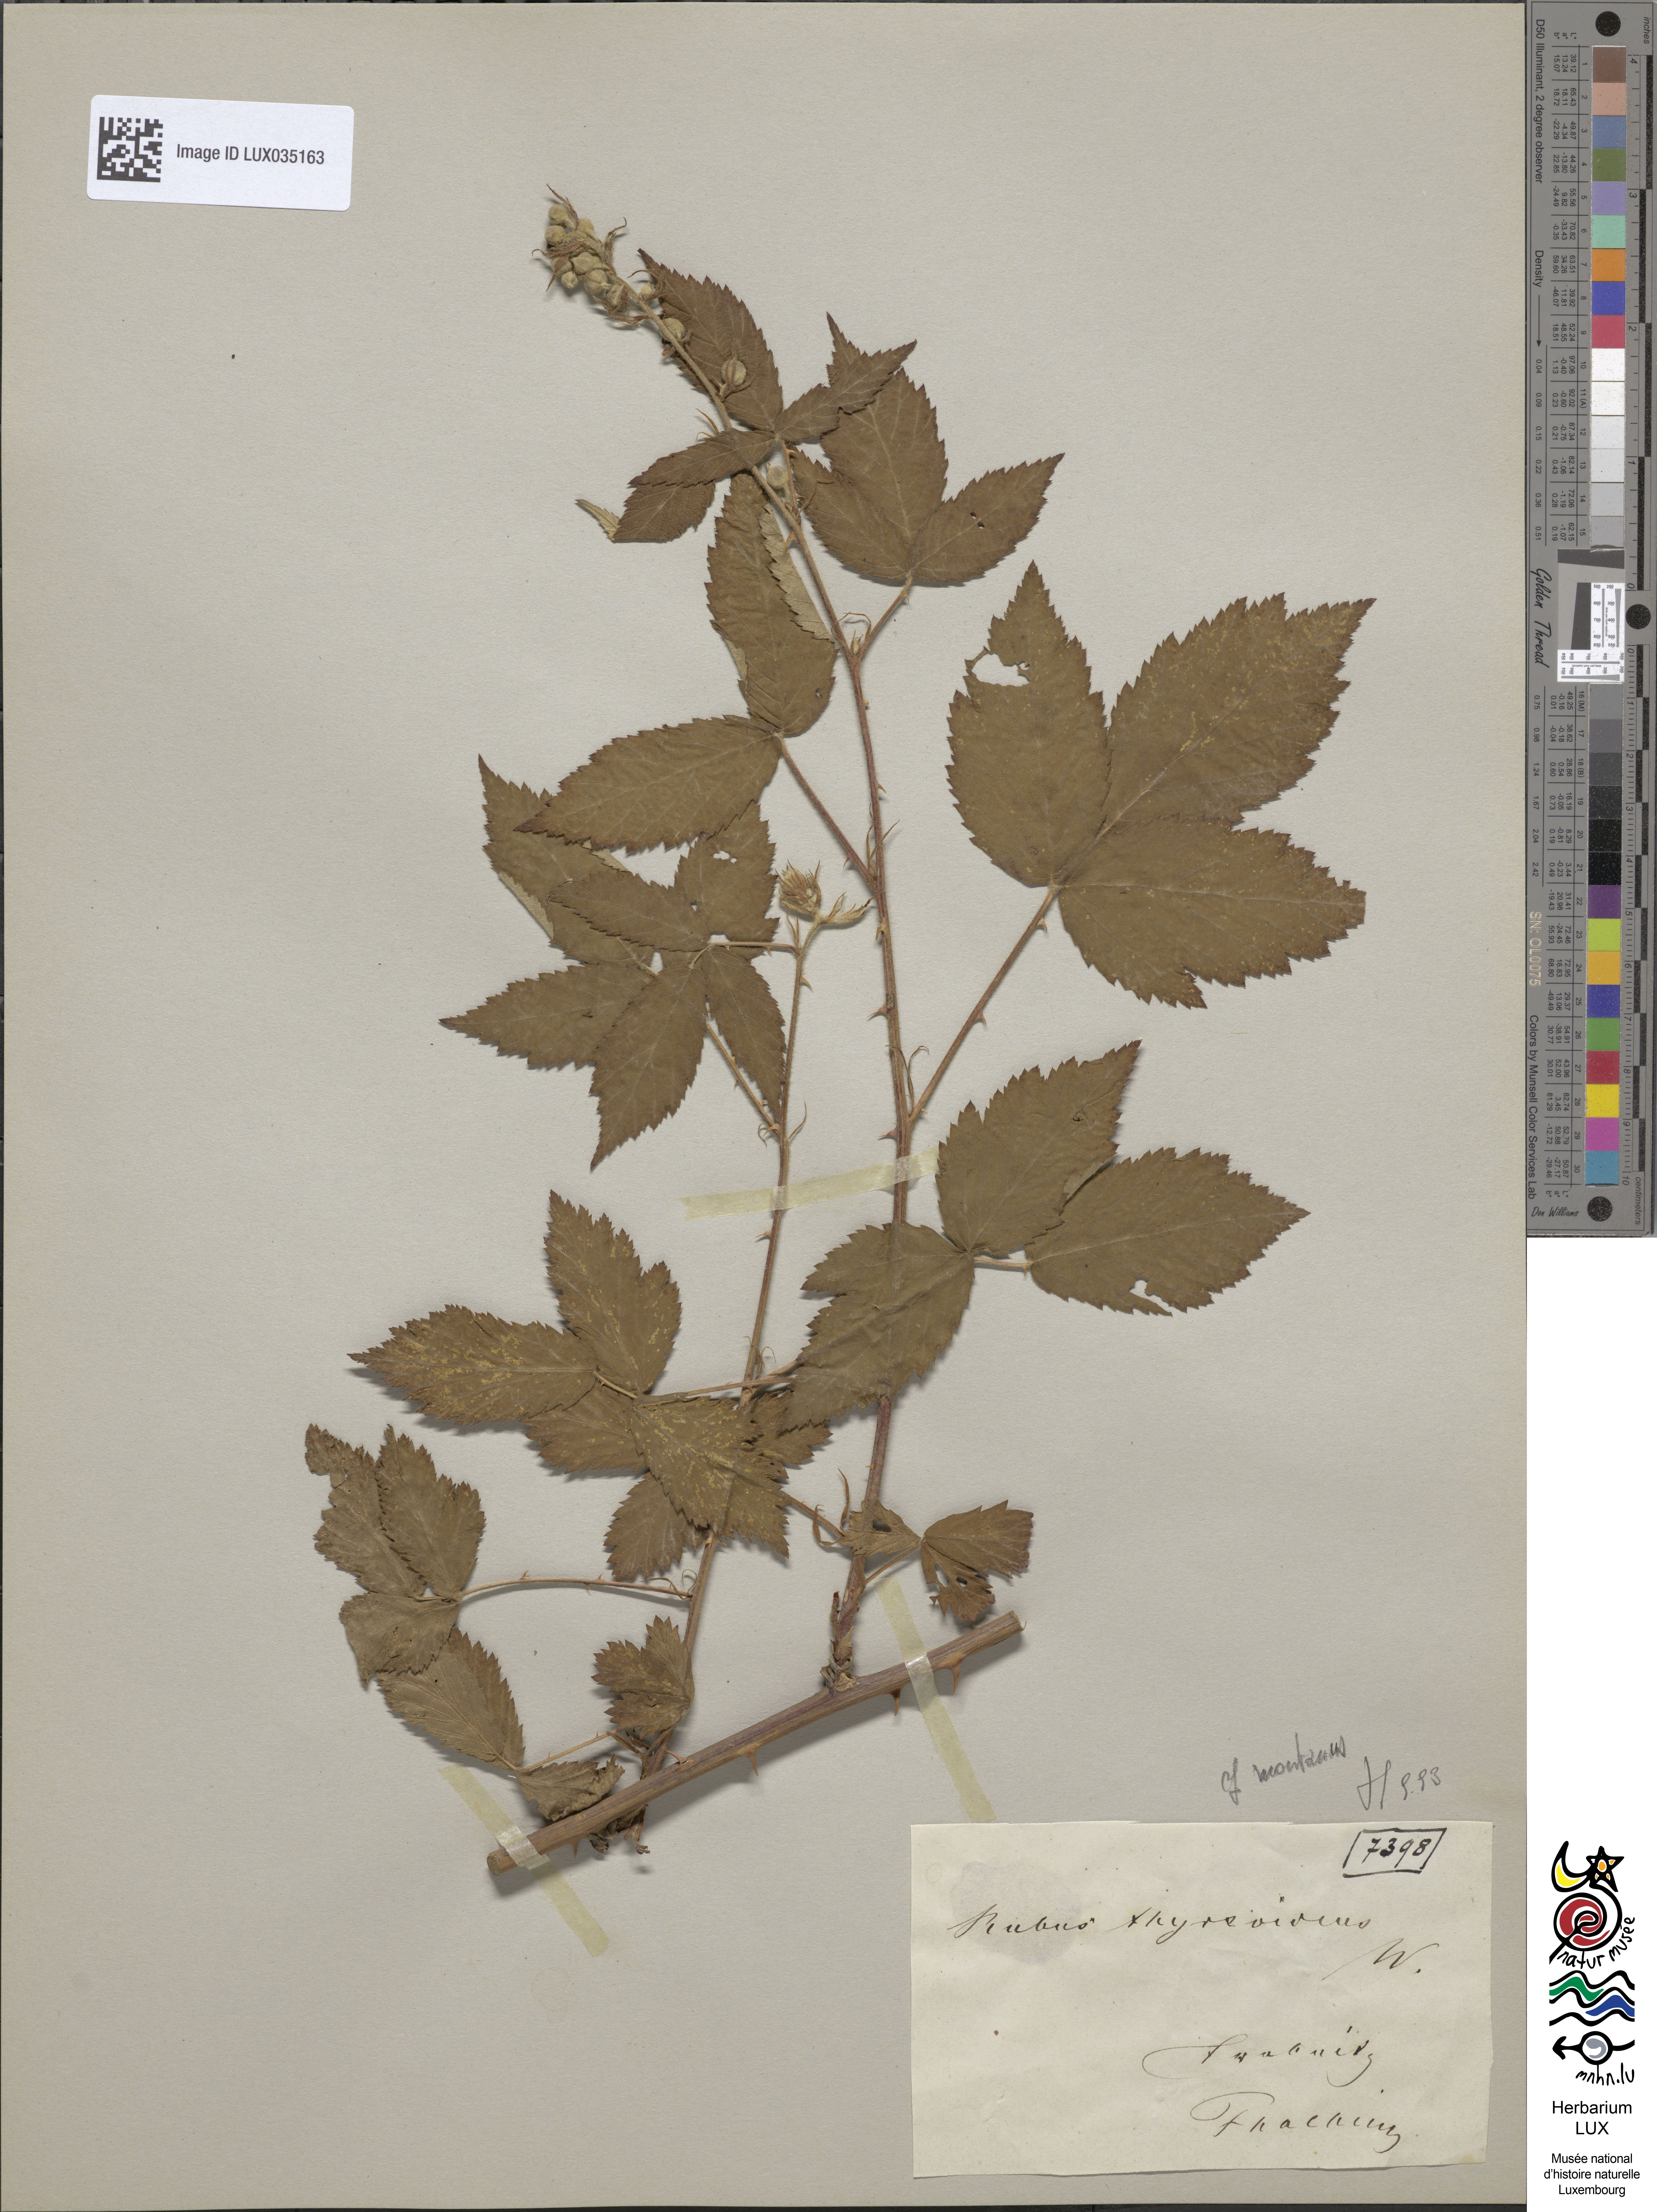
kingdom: Plantae
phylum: Tracheophyta
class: Magnoliopsida
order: Rosales
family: Rosaceae
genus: Rubus
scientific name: Rubus silesiacus
